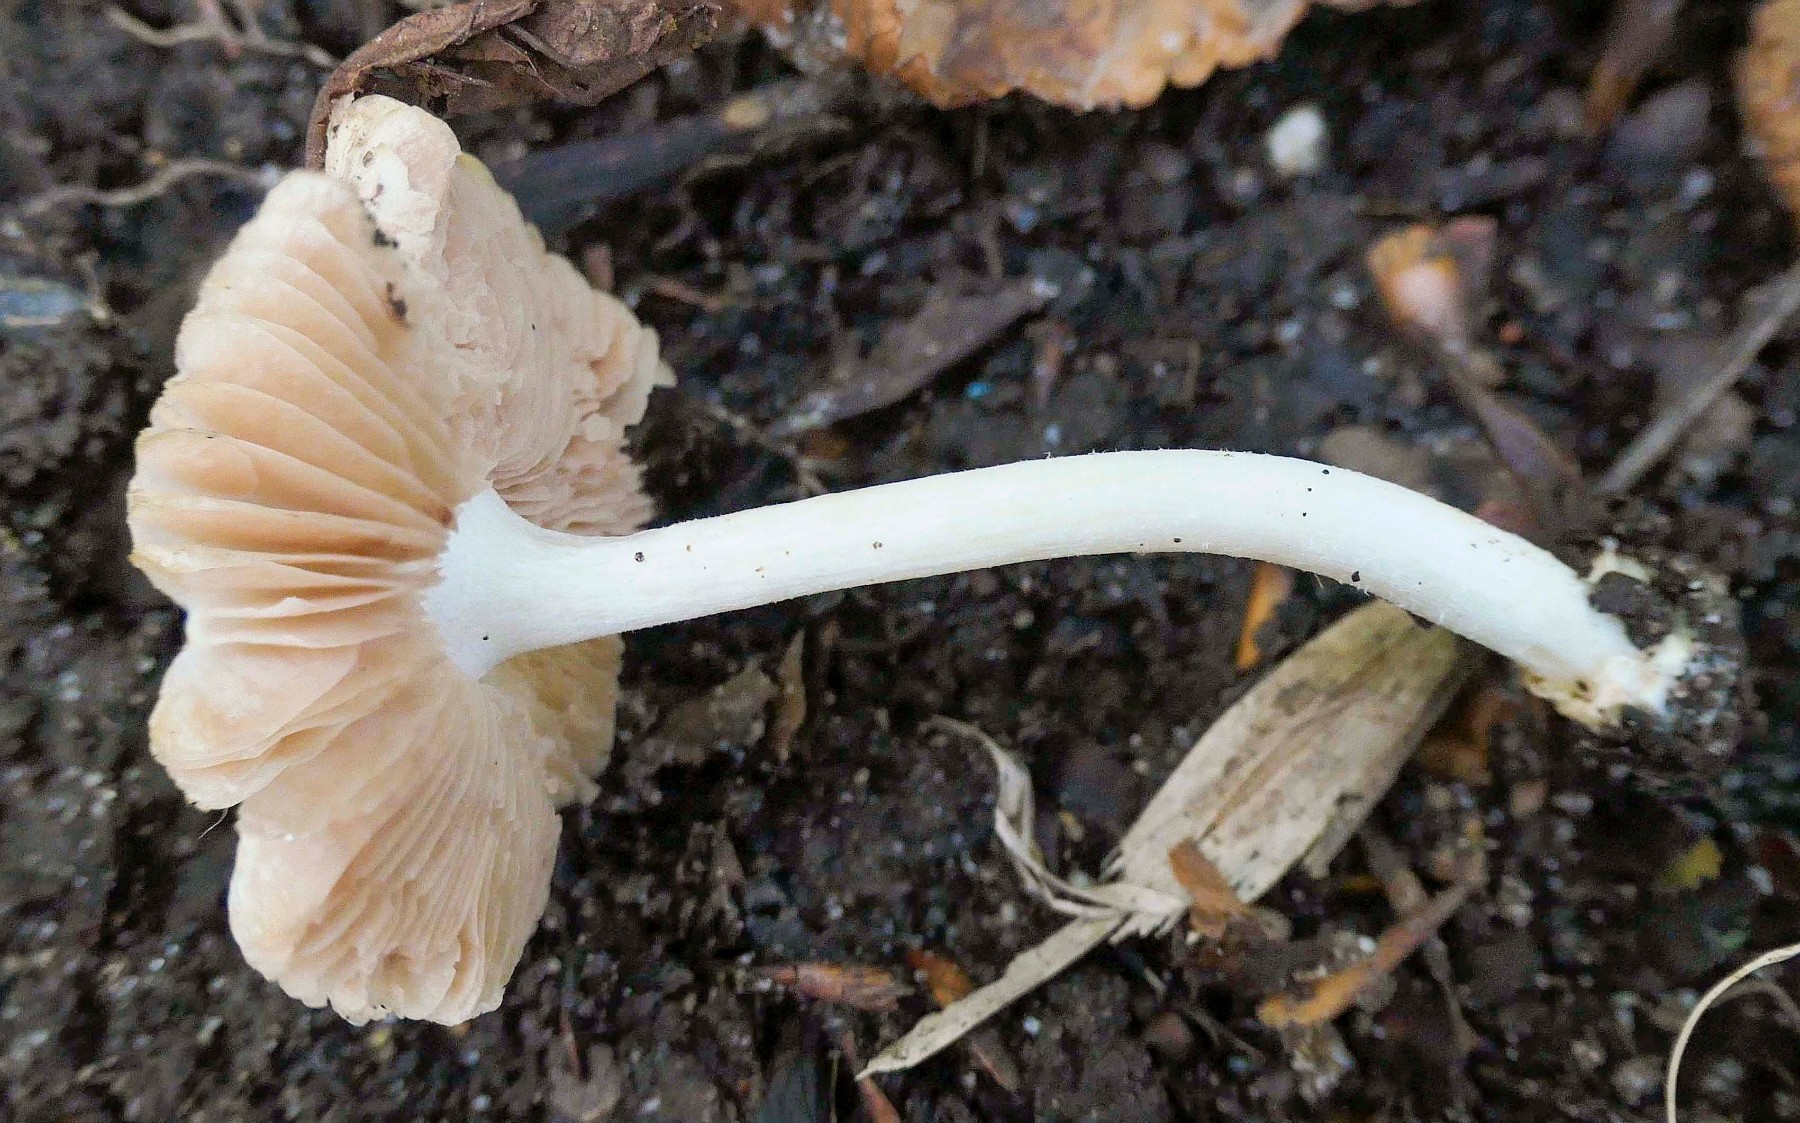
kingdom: Fungi
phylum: Basidiomycota
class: Agaricomycetes
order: Agaricales
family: Pluteaceae
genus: Volvariella
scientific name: Volvariella murinella
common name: musegrå posesvamp
